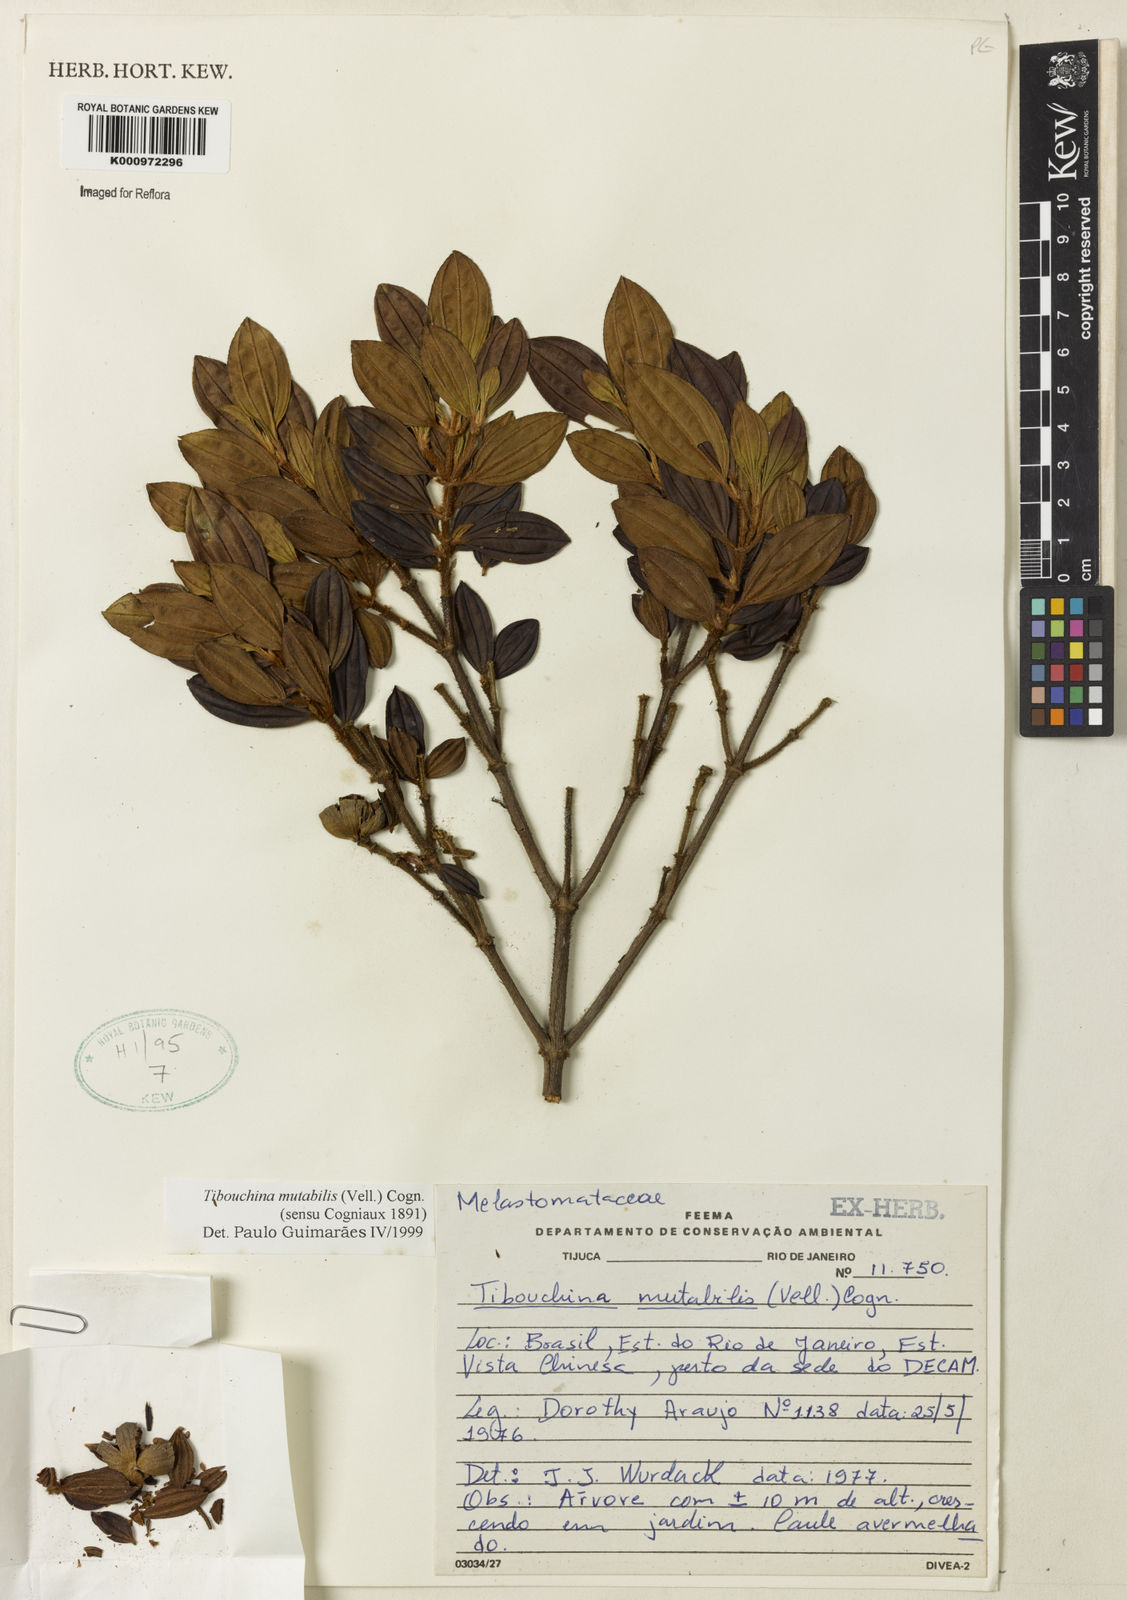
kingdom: Plantae
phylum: Tracheophyta
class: Magnoliopsida
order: Myrtales
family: Melastomataceae
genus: Pleroma
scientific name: Pleroma mutabile
